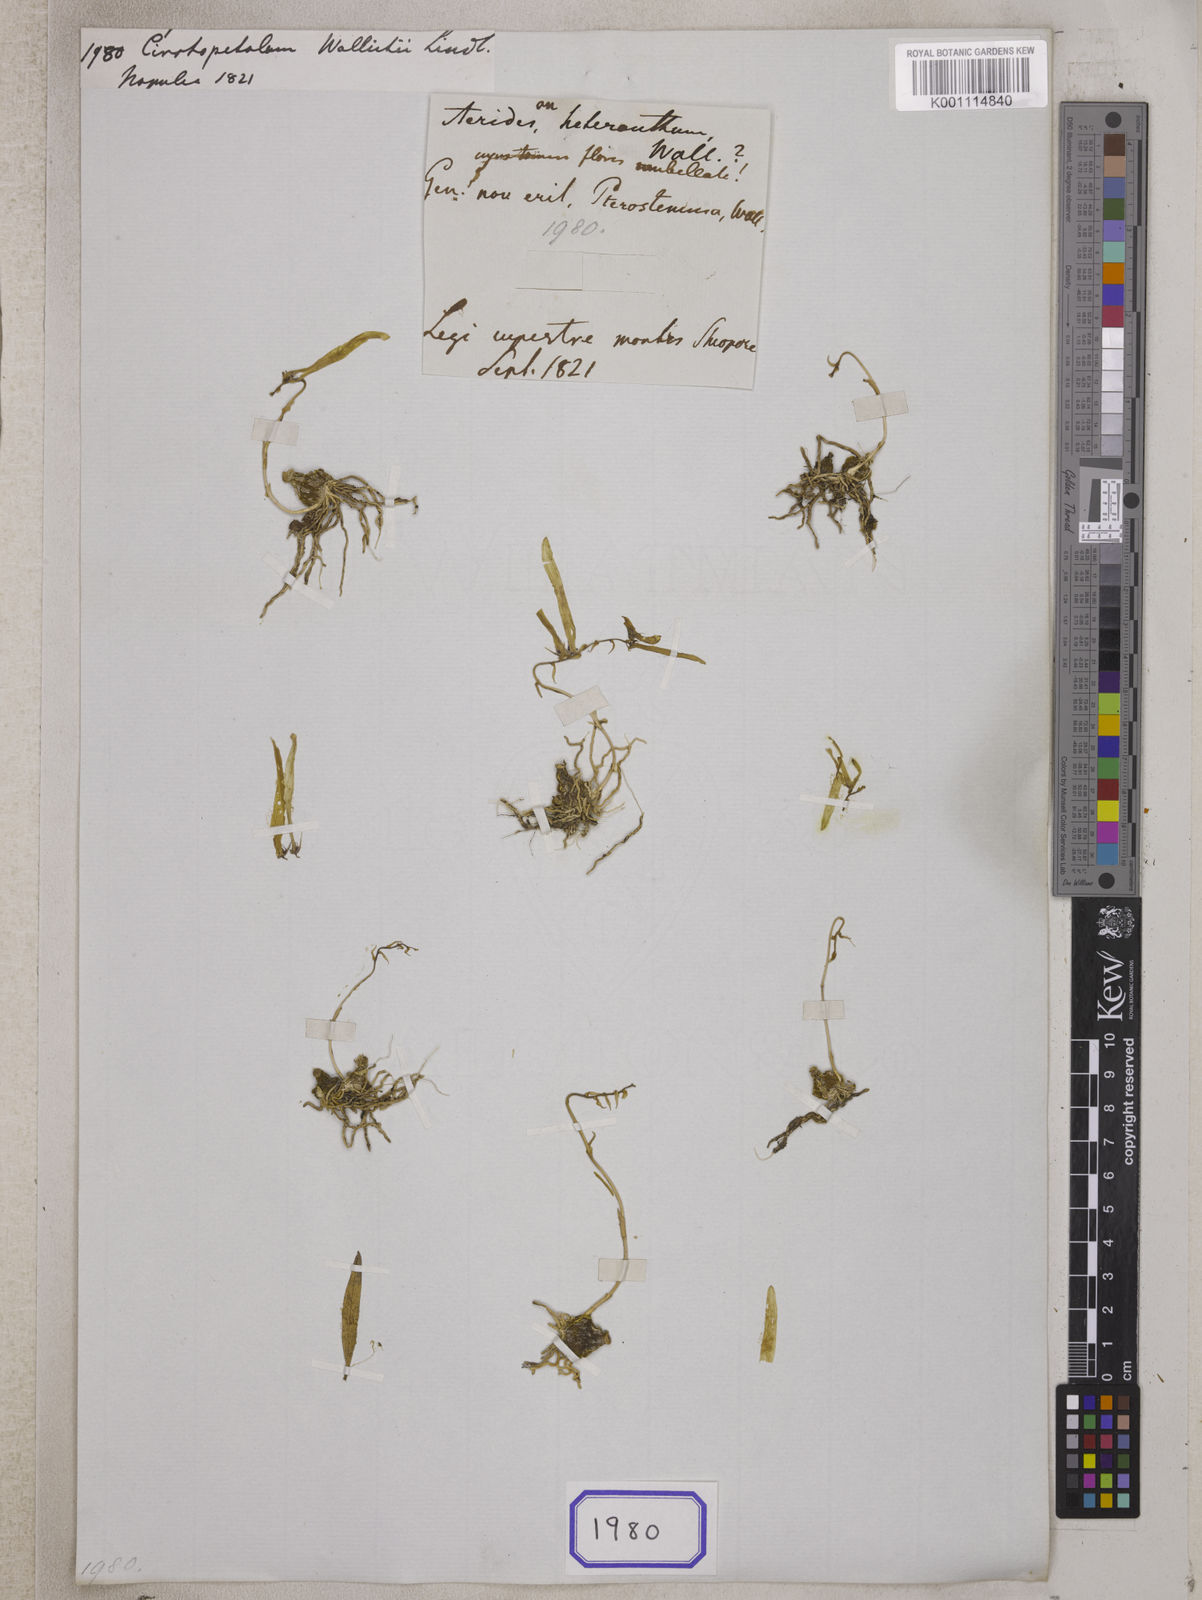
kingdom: Plantae
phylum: Tracheophyta
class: Liliopsida
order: Asparagales
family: Orchidaceae
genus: Bulbophyllum
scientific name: Bulbophyllum wallichii
